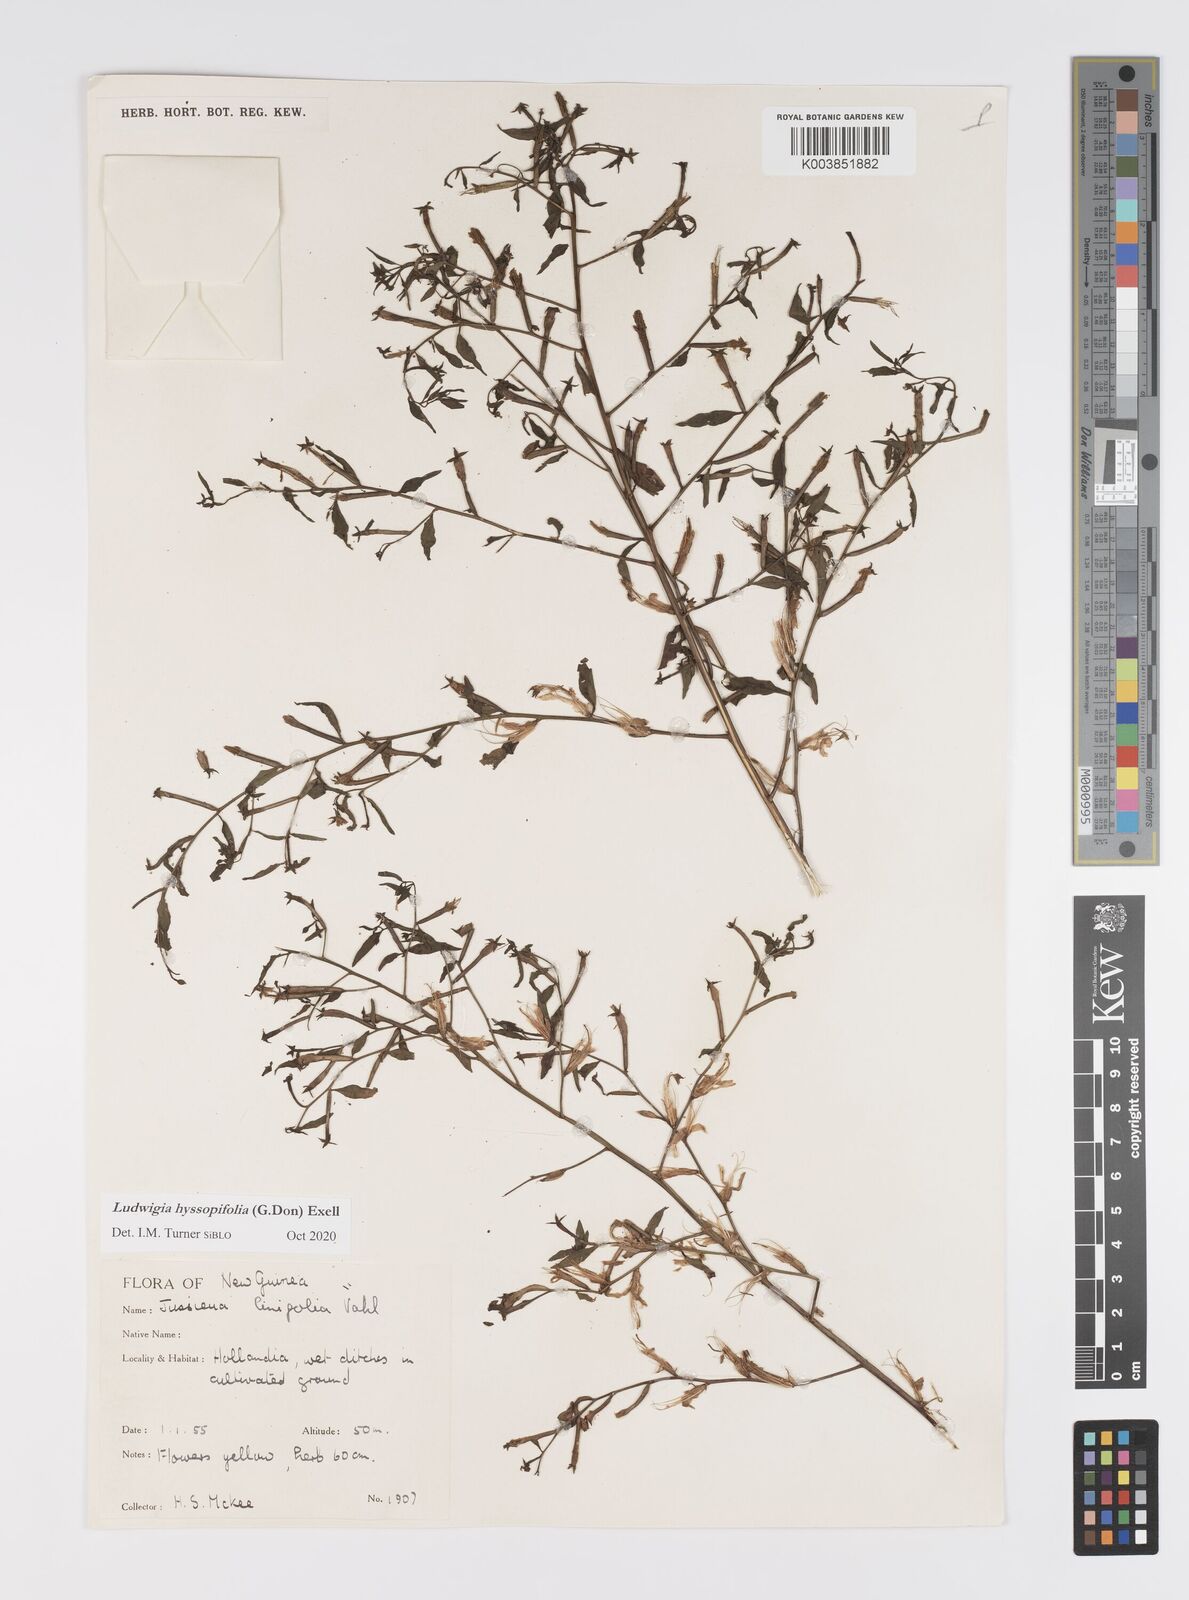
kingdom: Plantae
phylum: Tracheophyta
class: Magnoliopsida
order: Myrtales
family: Onagraceae
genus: Ludwigia
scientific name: Ludwigia hyssopifolia
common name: Linear leaf water primrose
